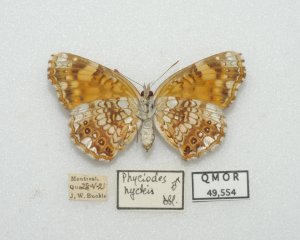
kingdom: Animalia
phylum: Arthropoda
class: Insecta
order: Lepidoptera
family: Nymphalidae
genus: Chlosyne
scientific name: Chlosyne nycteis
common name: Silvery Checkerspot
